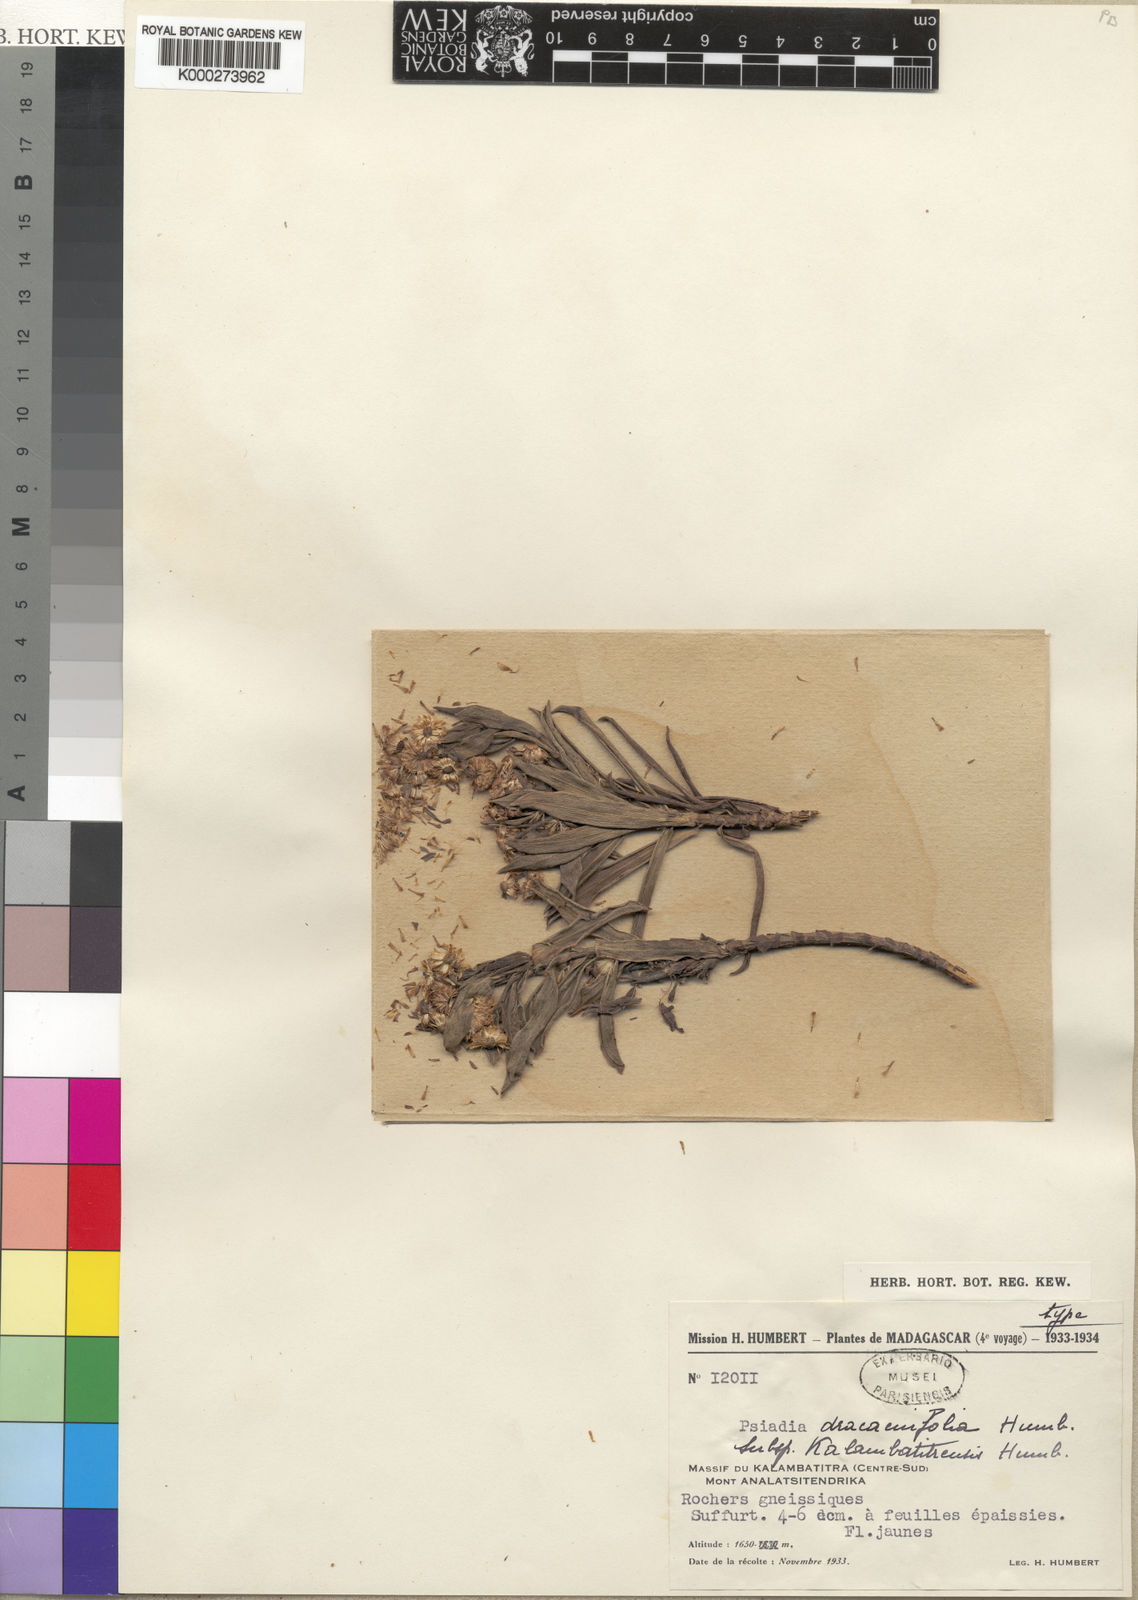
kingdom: Plantae
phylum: Tracheophyta
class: Magnoliopsida
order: Asterales
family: Asteraceae
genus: Psiadia
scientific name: Psiadia dracaenifolia
